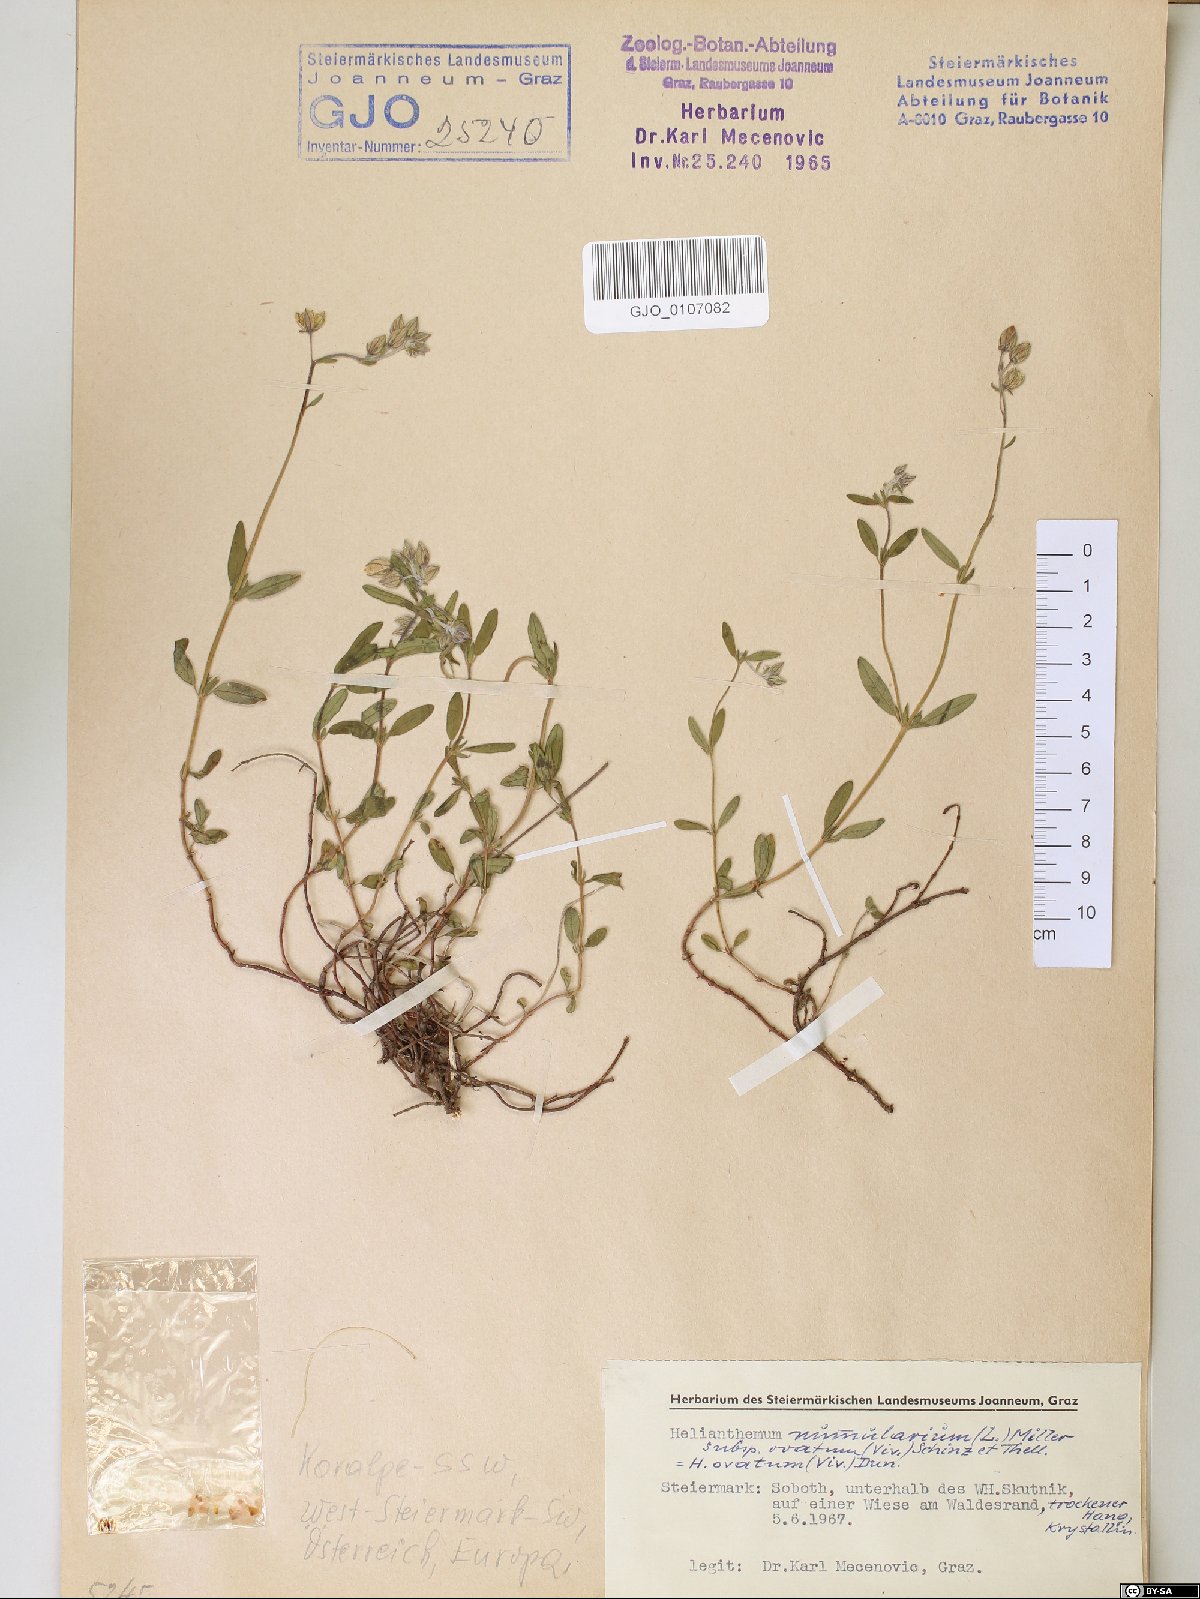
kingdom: Plantae
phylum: Tracheophyta
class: Magnoliopsida
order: Malvales
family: Cistaceae
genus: Helianthemum
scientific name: Helianthemum nummularium
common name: Common rock-rose
